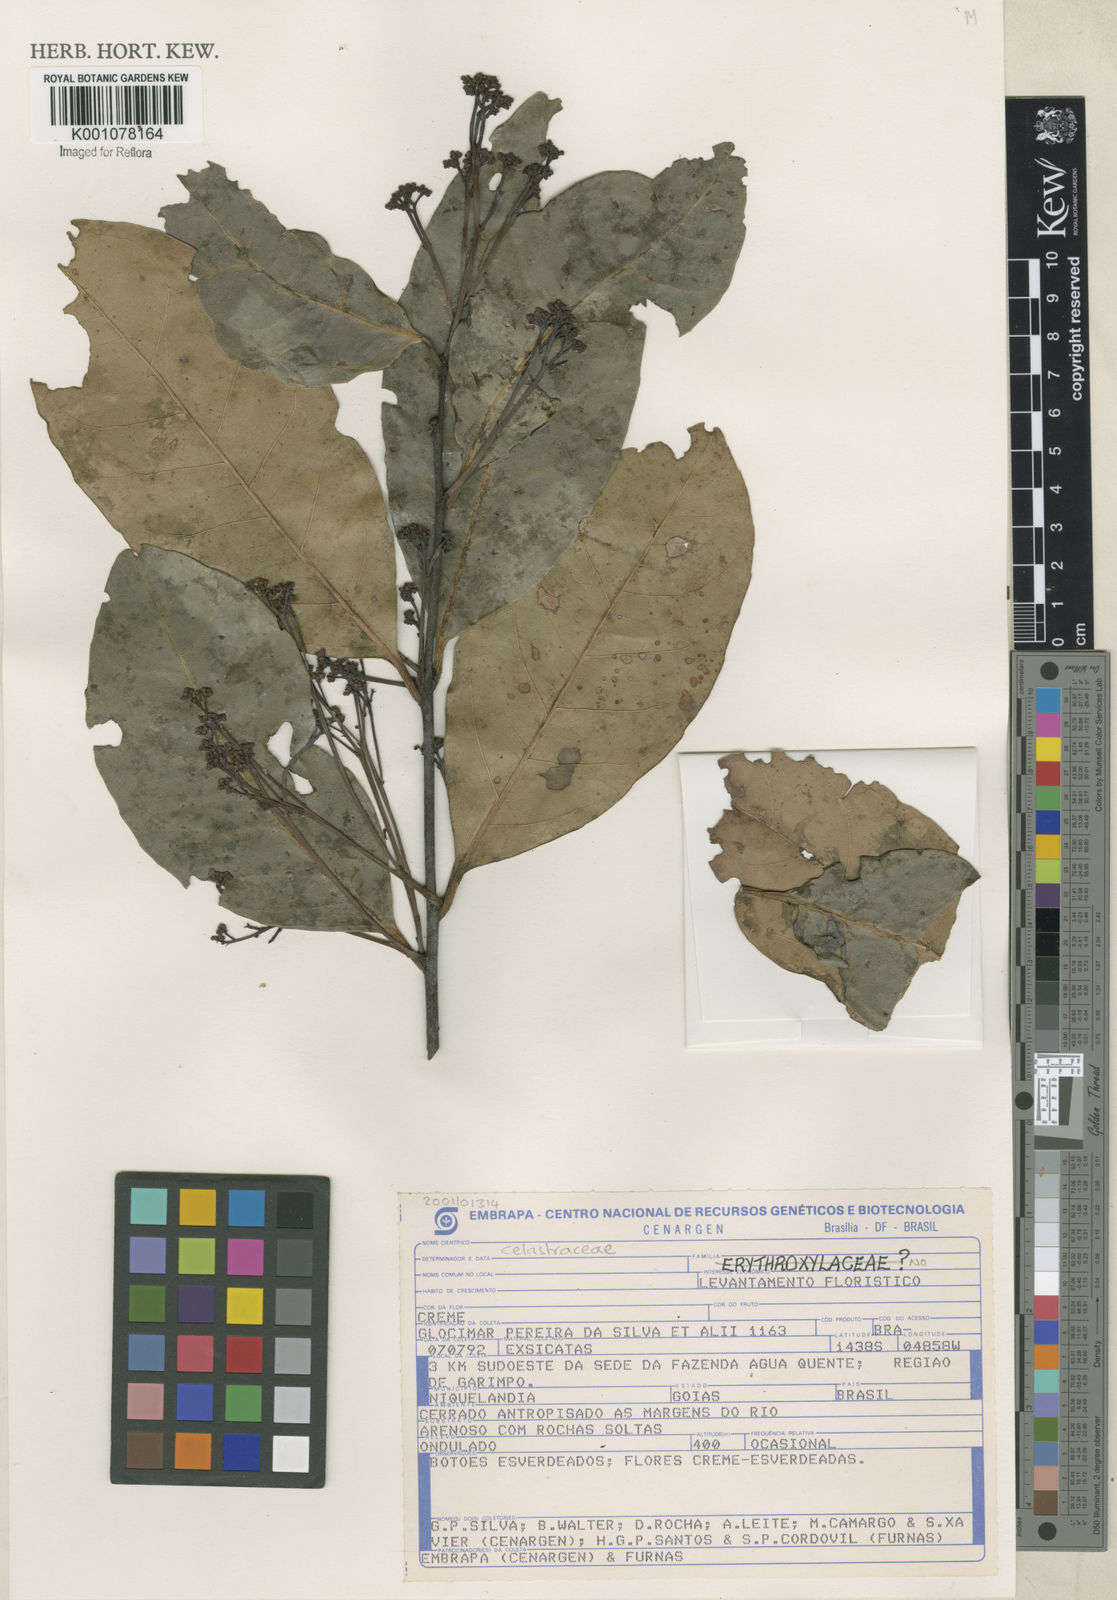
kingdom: Plantae
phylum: Tracheophyta
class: Magnoliopsida
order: Celastrales
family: Celastraceae
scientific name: Celastraceae
